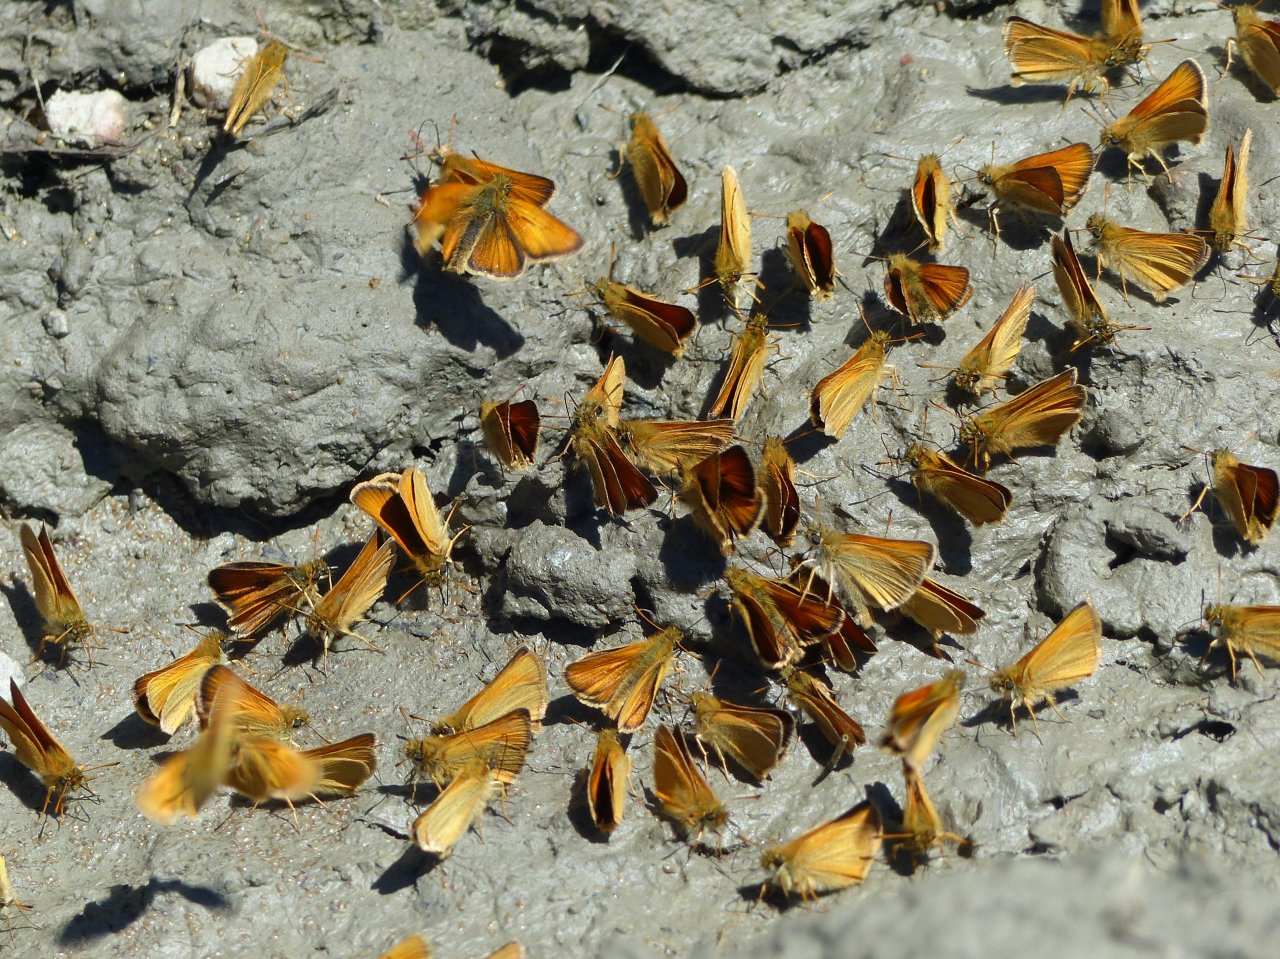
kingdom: Animalia
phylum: Arthropoda
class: Insecta
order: Lepidoptera
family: Hesperiidae
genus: Thymelicus
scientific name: Thymelicus lineola
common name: European Skipper
